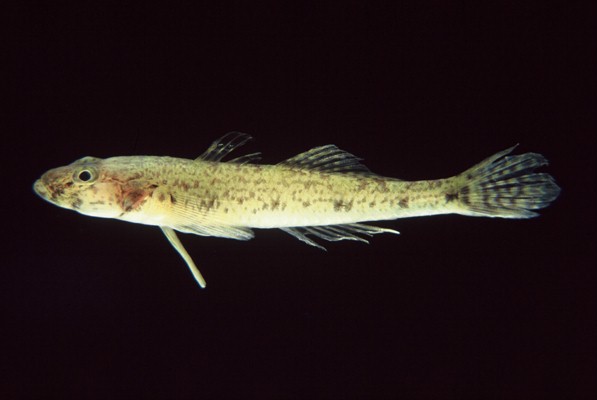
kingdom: Animalia
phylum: Chordata
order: Perciformes
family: Gobiidae
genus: Glossogobius
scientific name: Glossogobius callidus
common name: River goby
